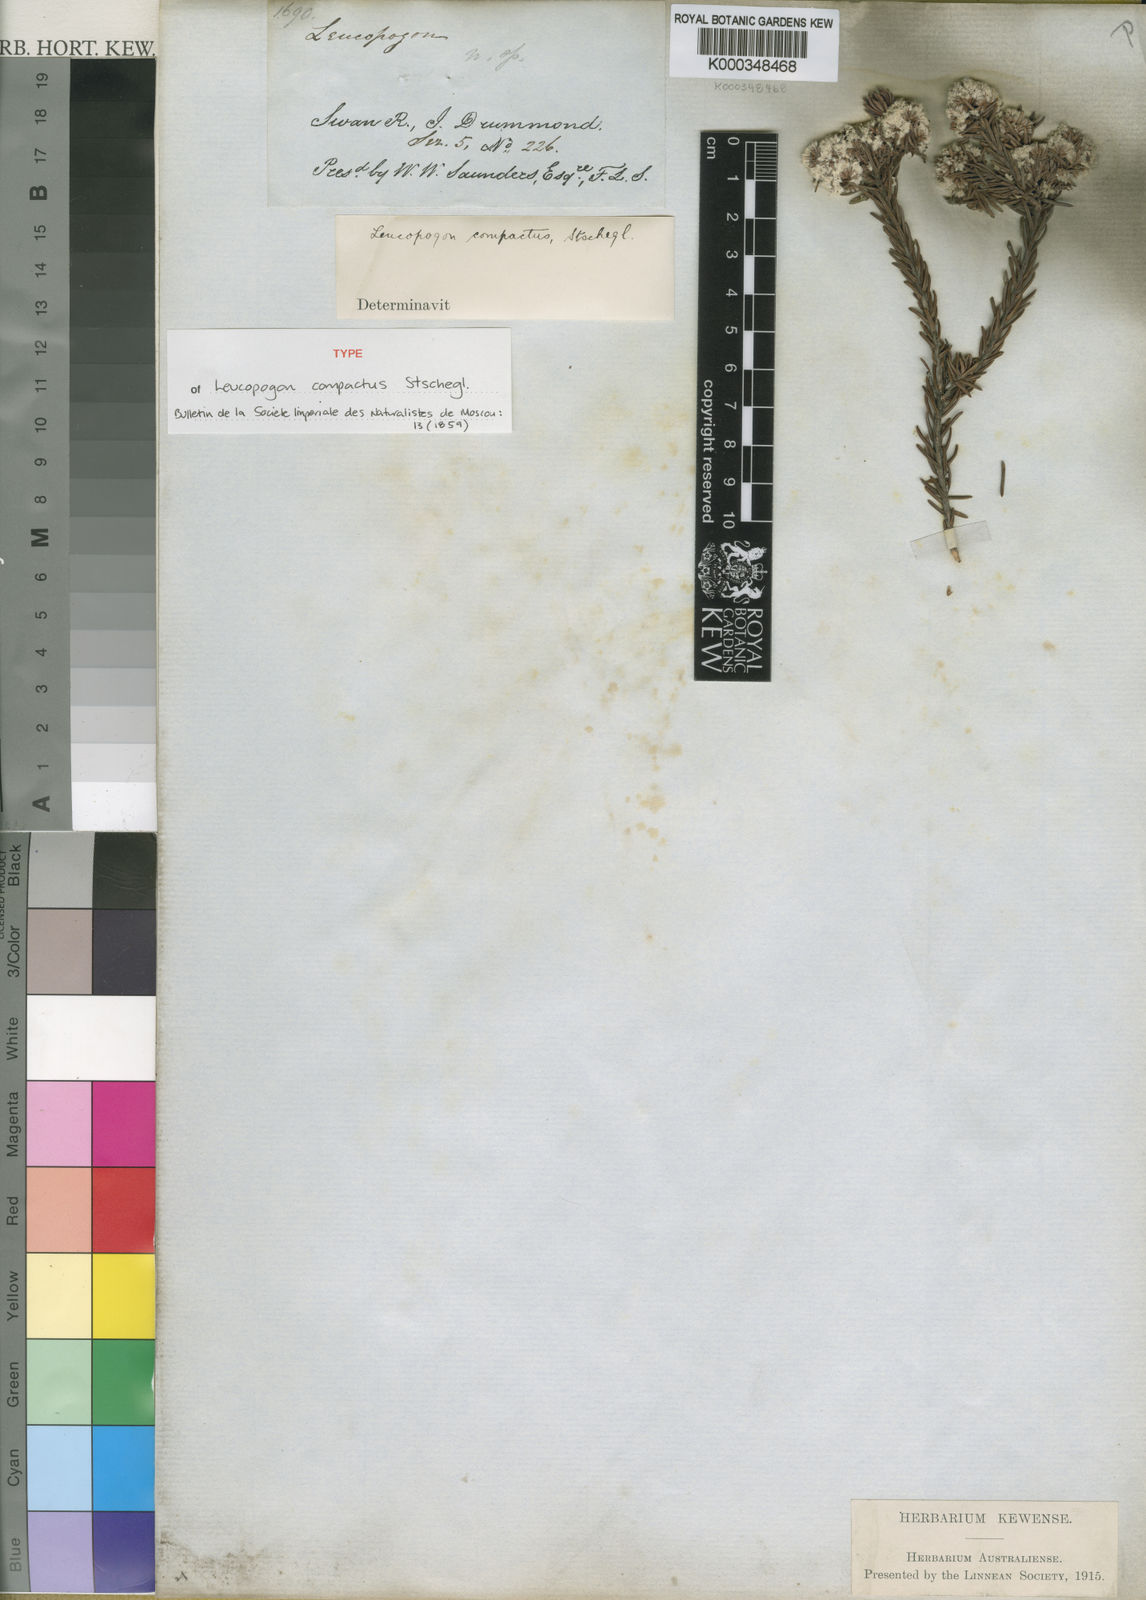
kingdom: Plantae
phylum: Tracheophyta
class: Magnoliopsida
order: Ericales
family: Ericaceae
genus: Leucopogon
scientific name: Leucopogon compactus
